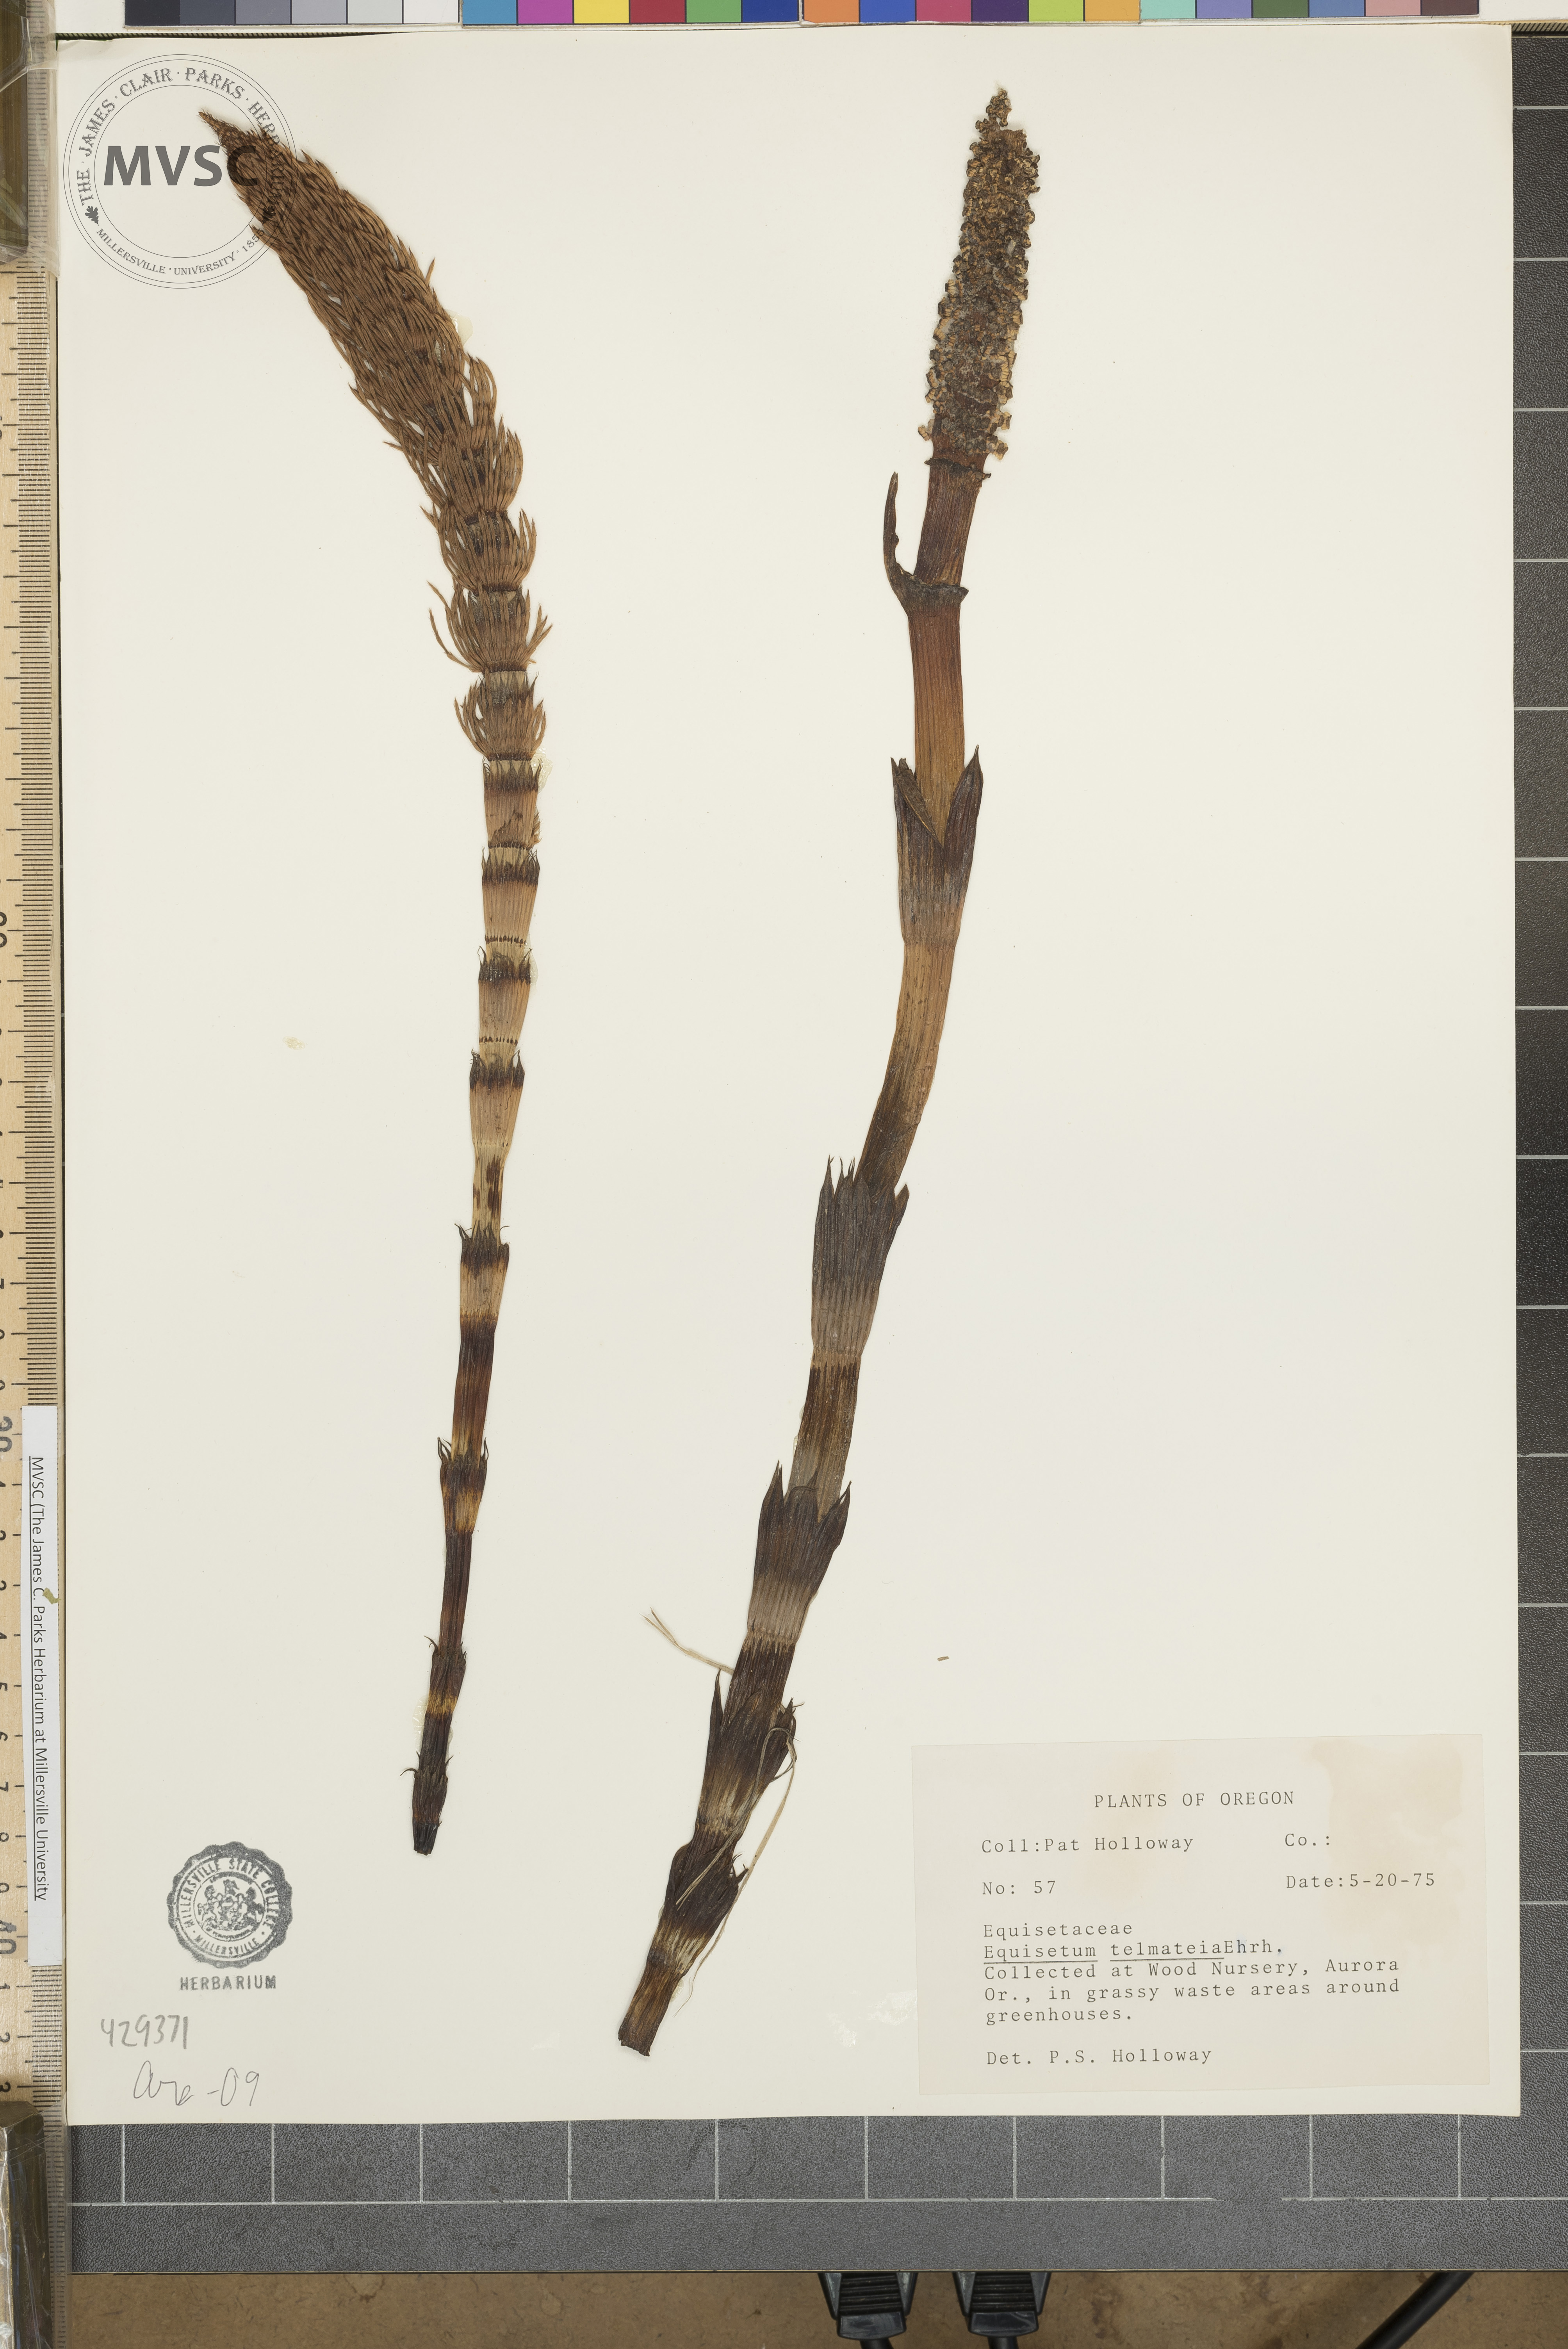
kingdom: Plantae
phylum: Tracheophyta
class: Polypodiopsida
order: Equisetales
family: Equisetaceae
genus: Equisetum
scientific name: Equisetum telmateia
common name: Great horsetail
